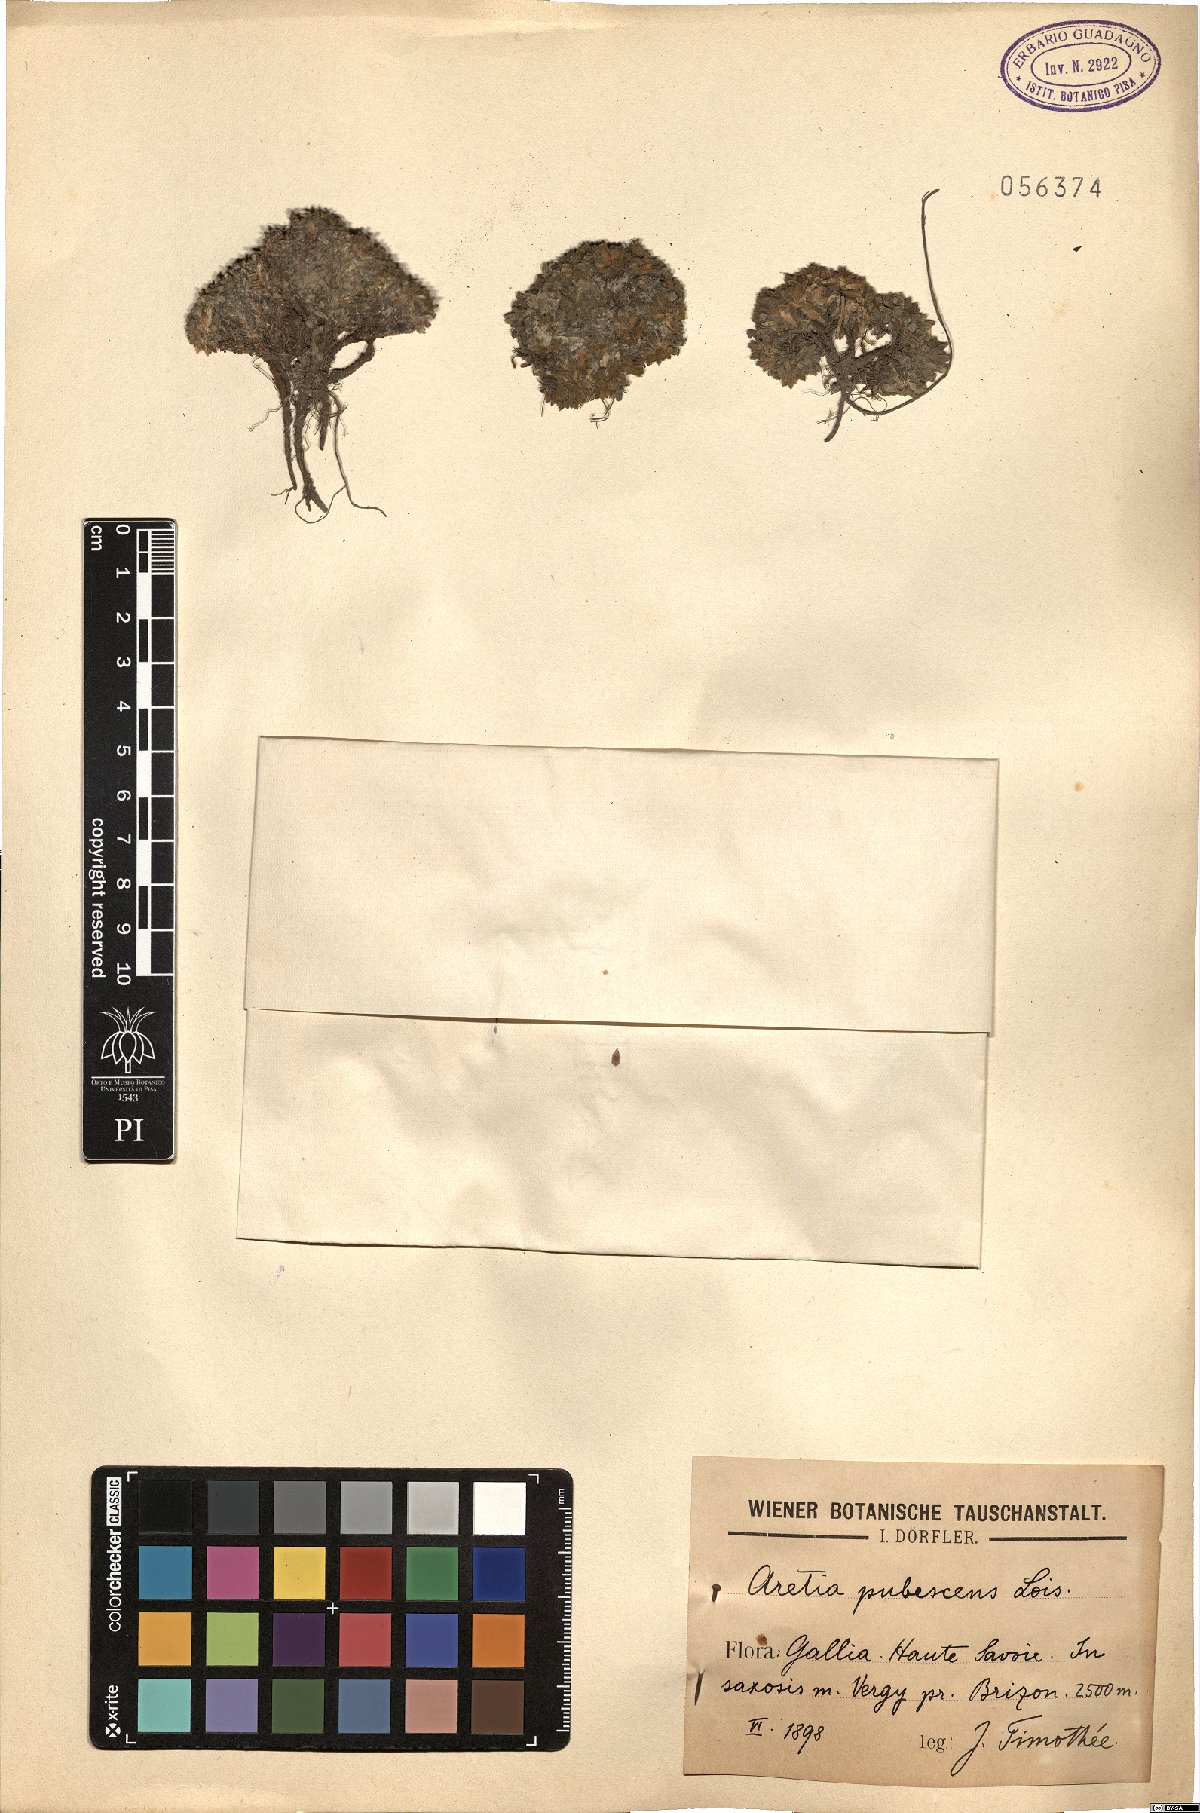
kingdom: Plantae
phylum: Tracheophyta
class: Magnoliopsida
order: Ericales
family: Primulaceae
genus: Androsace
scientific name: Androsace pubescens
